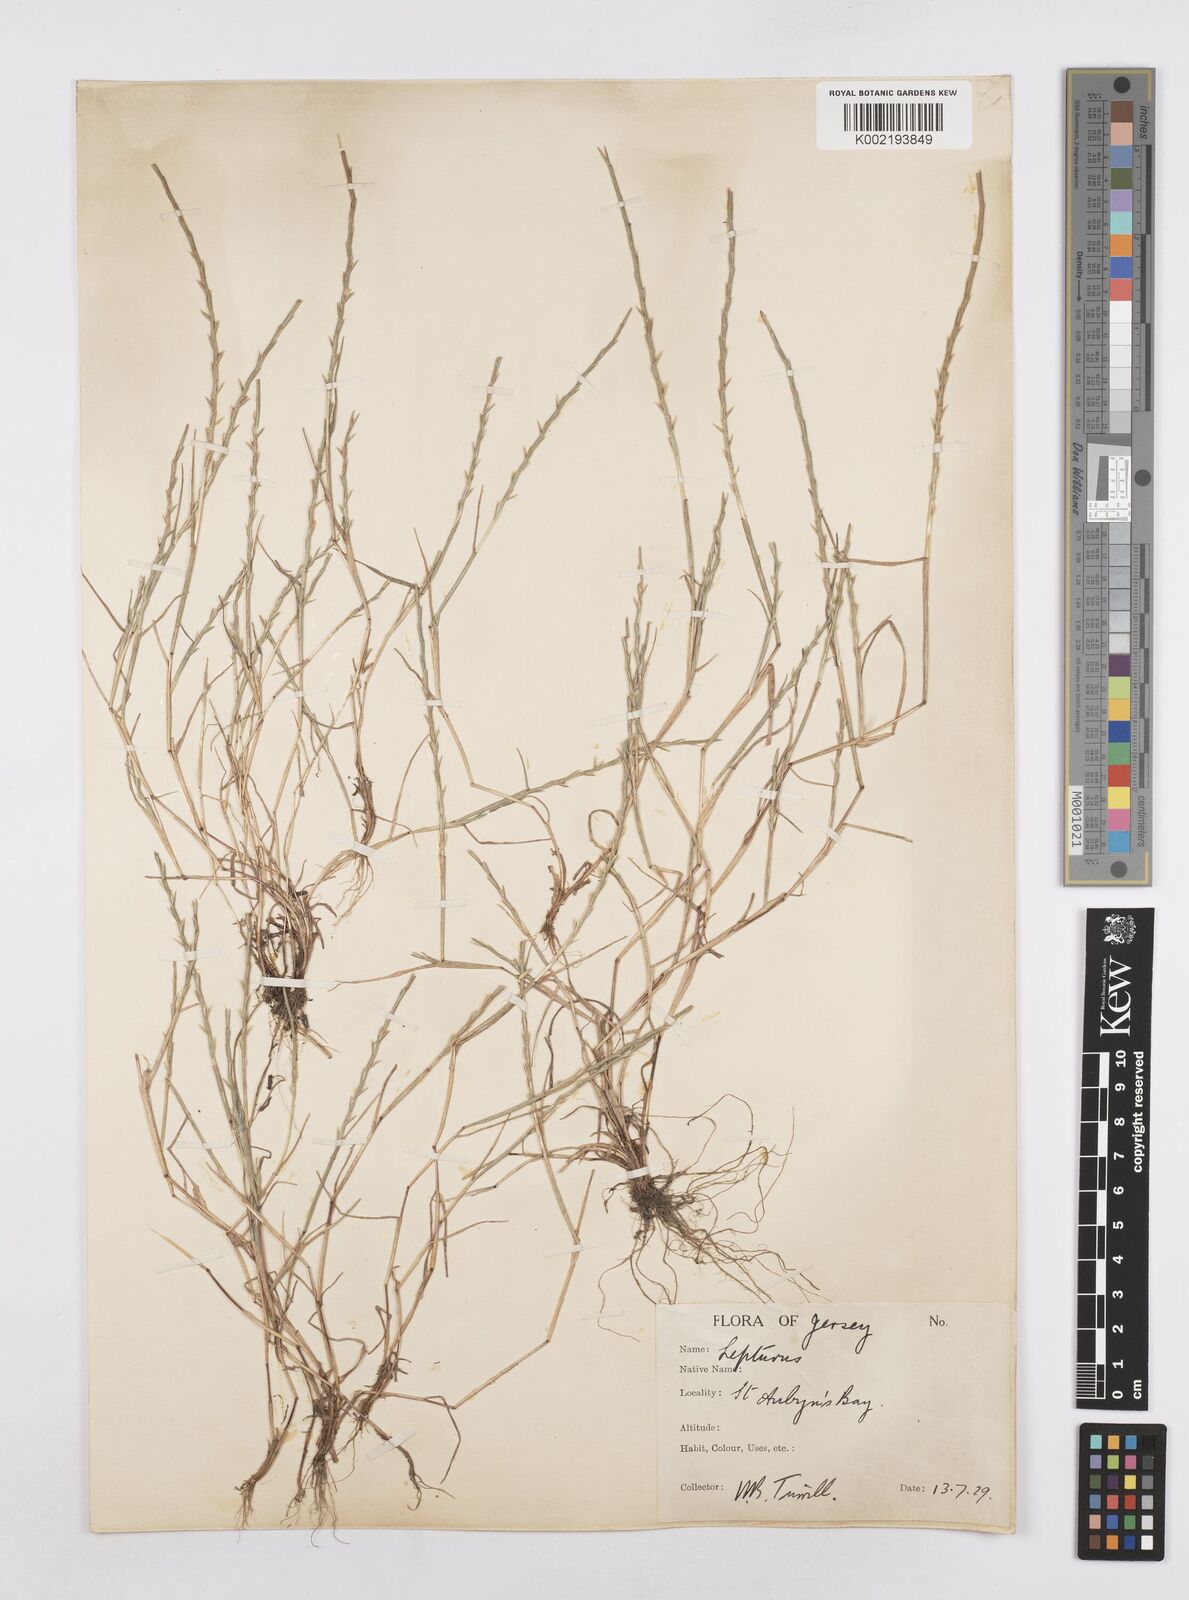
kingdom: Plantae
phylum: Tracheophyta
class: Liliopsida
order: Poales
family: Poaceae
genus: Parapholis
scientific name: Parapholis strigosa
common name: Hard-grass
